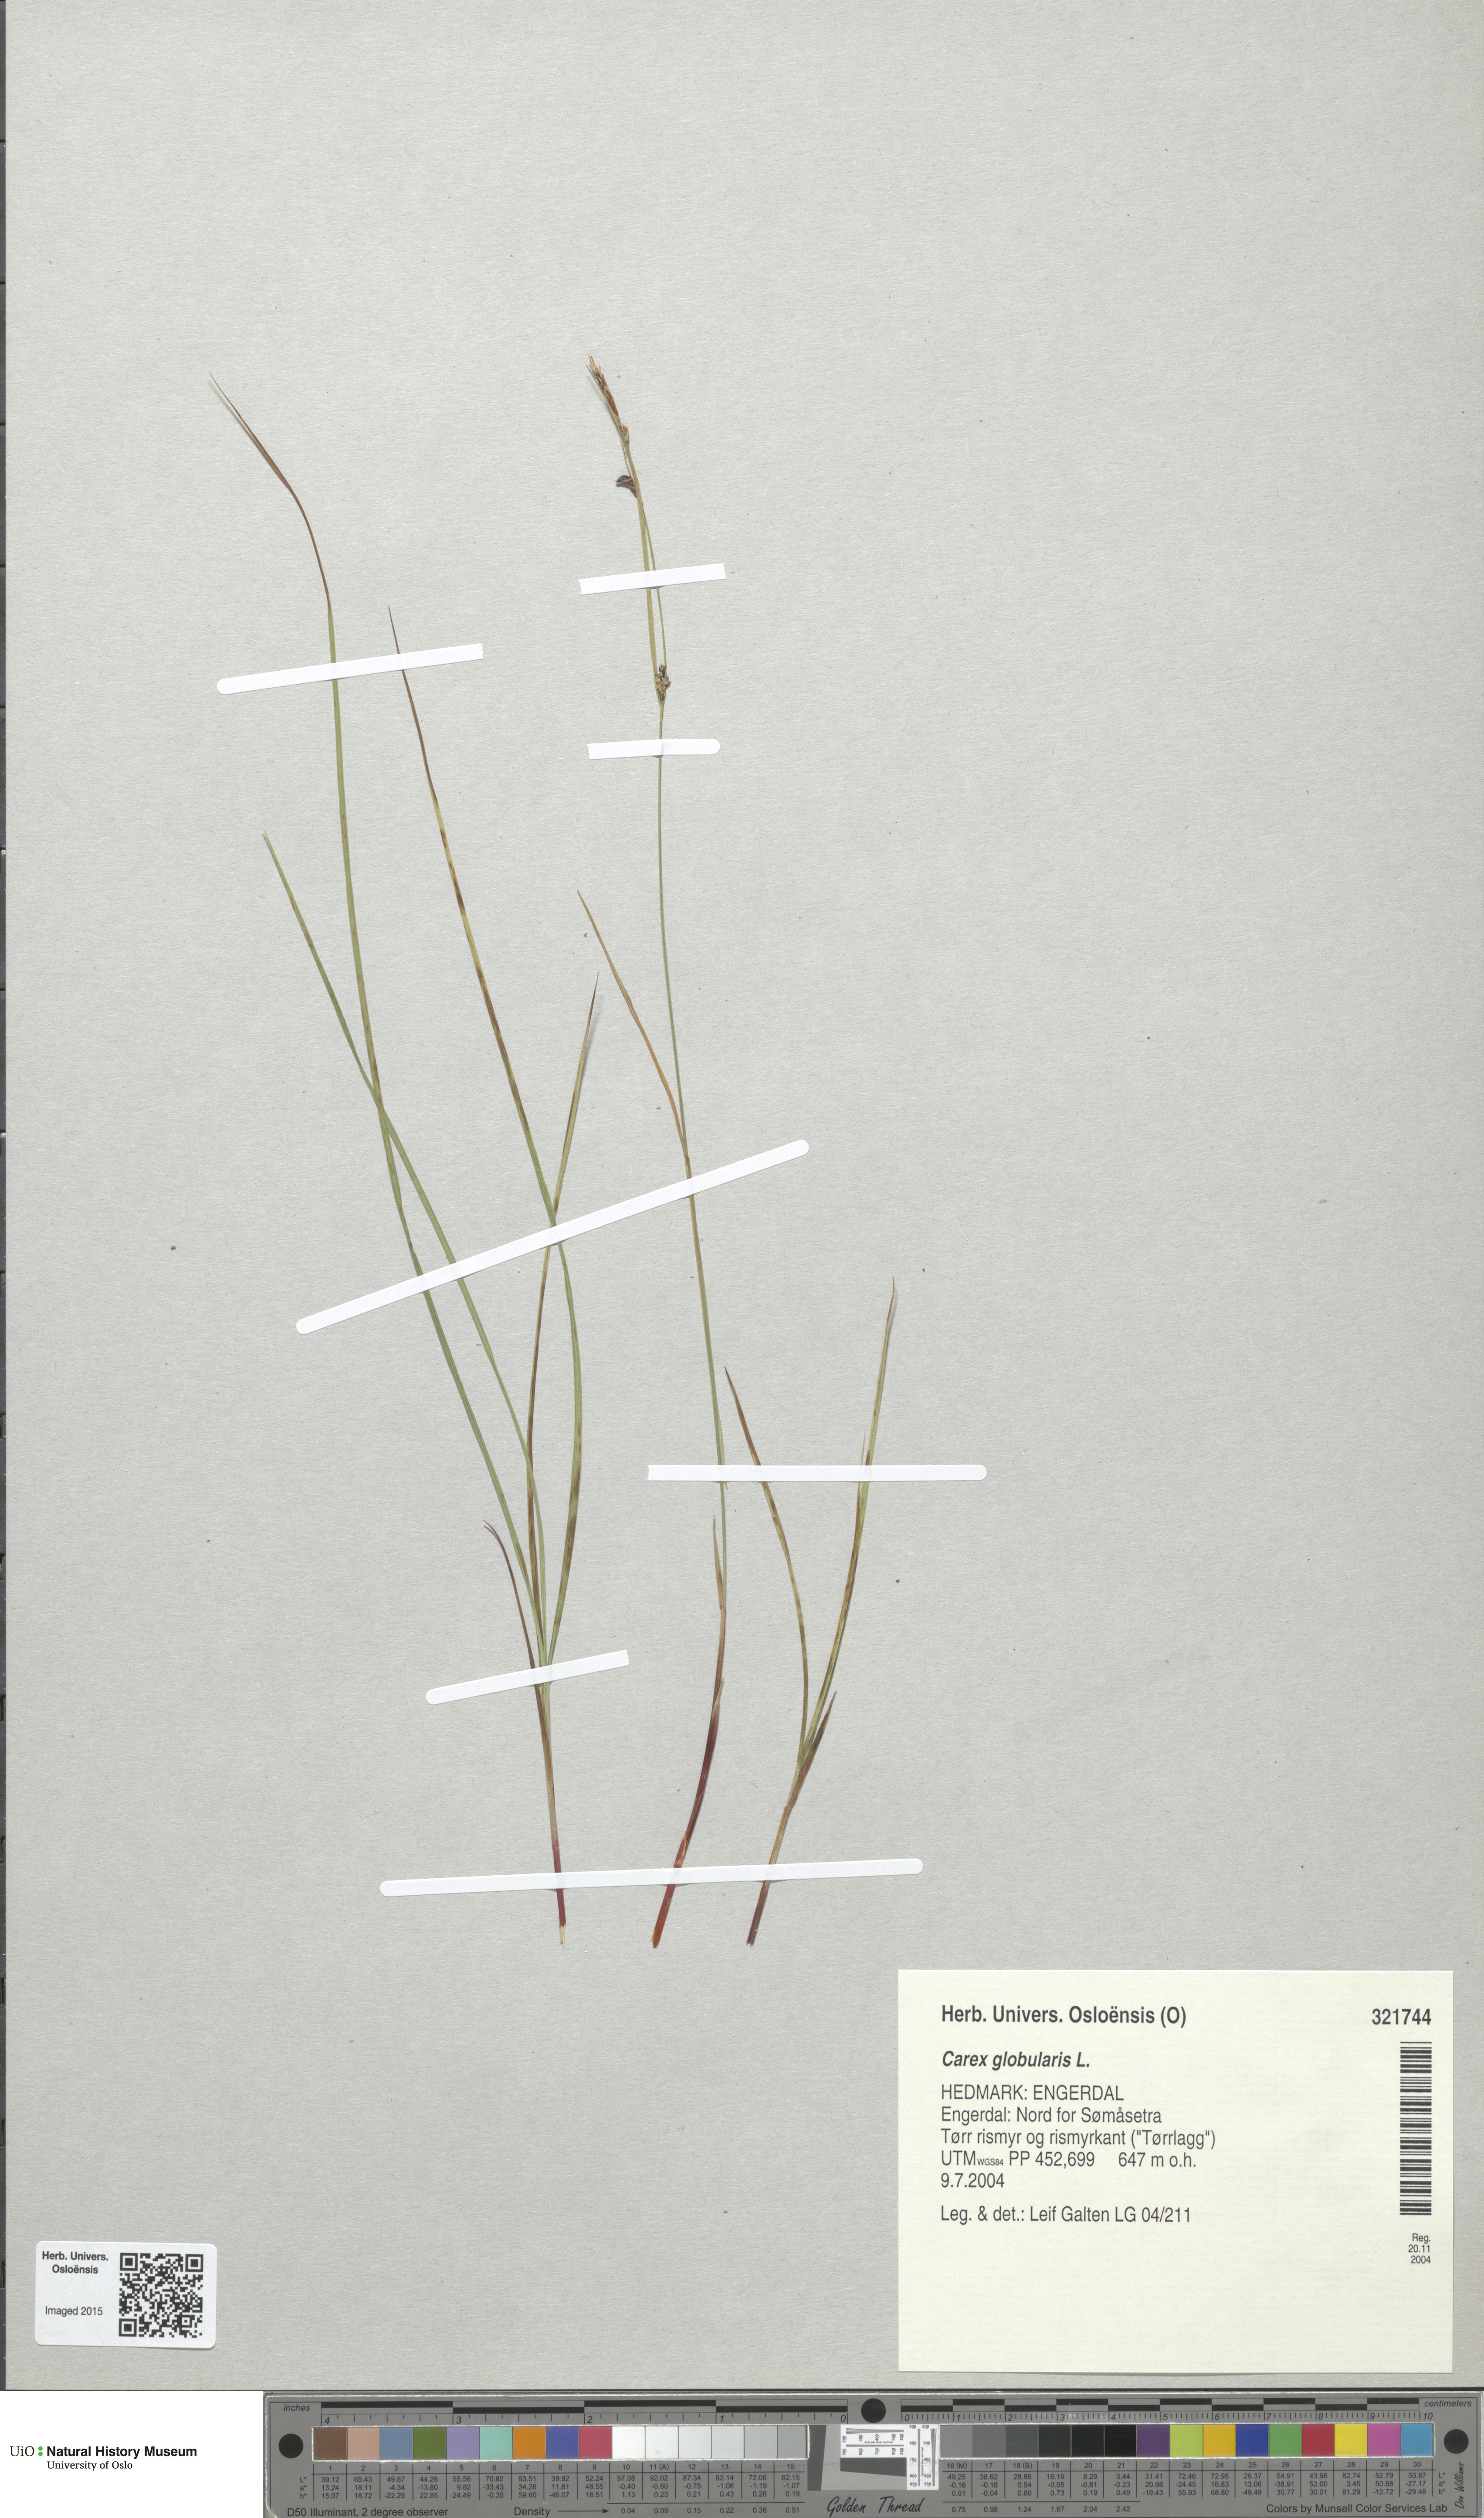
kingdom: Plantae
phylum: Tracheophyta
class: Liliopsida
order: Poales
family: Cyperaceae
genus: Carex
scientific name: Carex globularis
